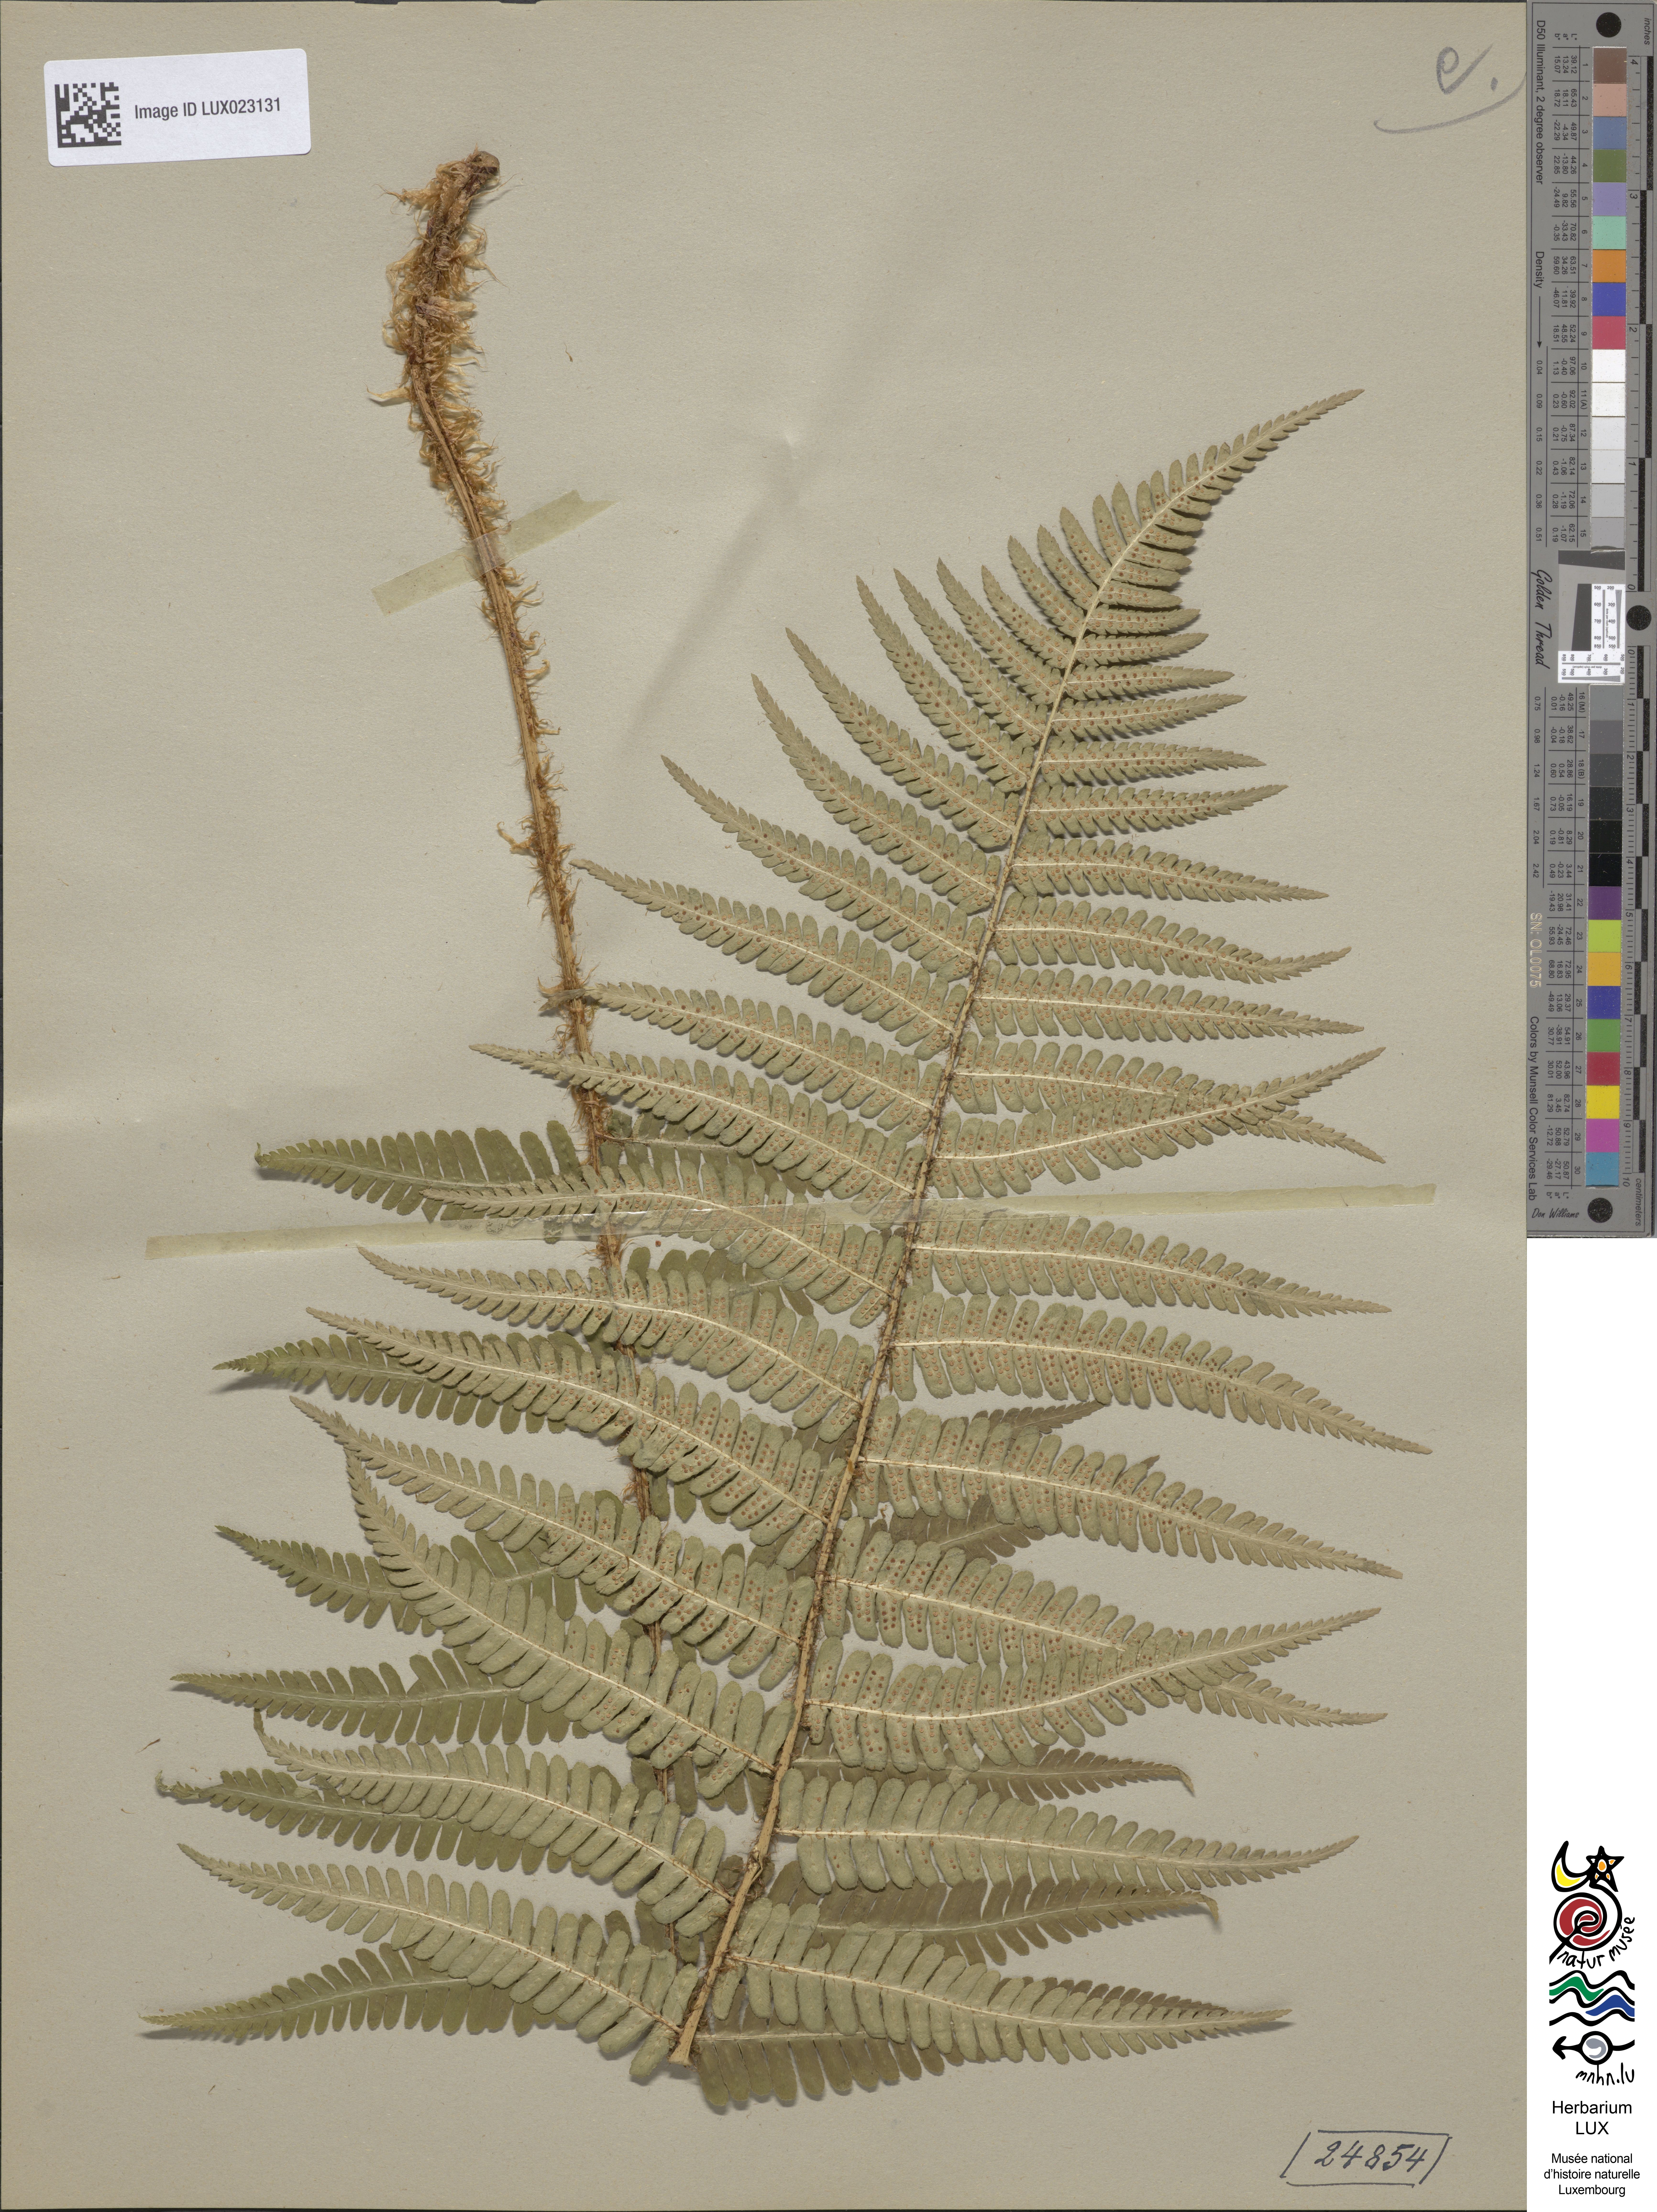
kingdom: Plantae
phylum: Tracheophyta
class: Polypodiopsida
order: Polypodiales
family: Dryopteridaceae
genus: Dryopteris
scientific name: Dryopteris borreri
